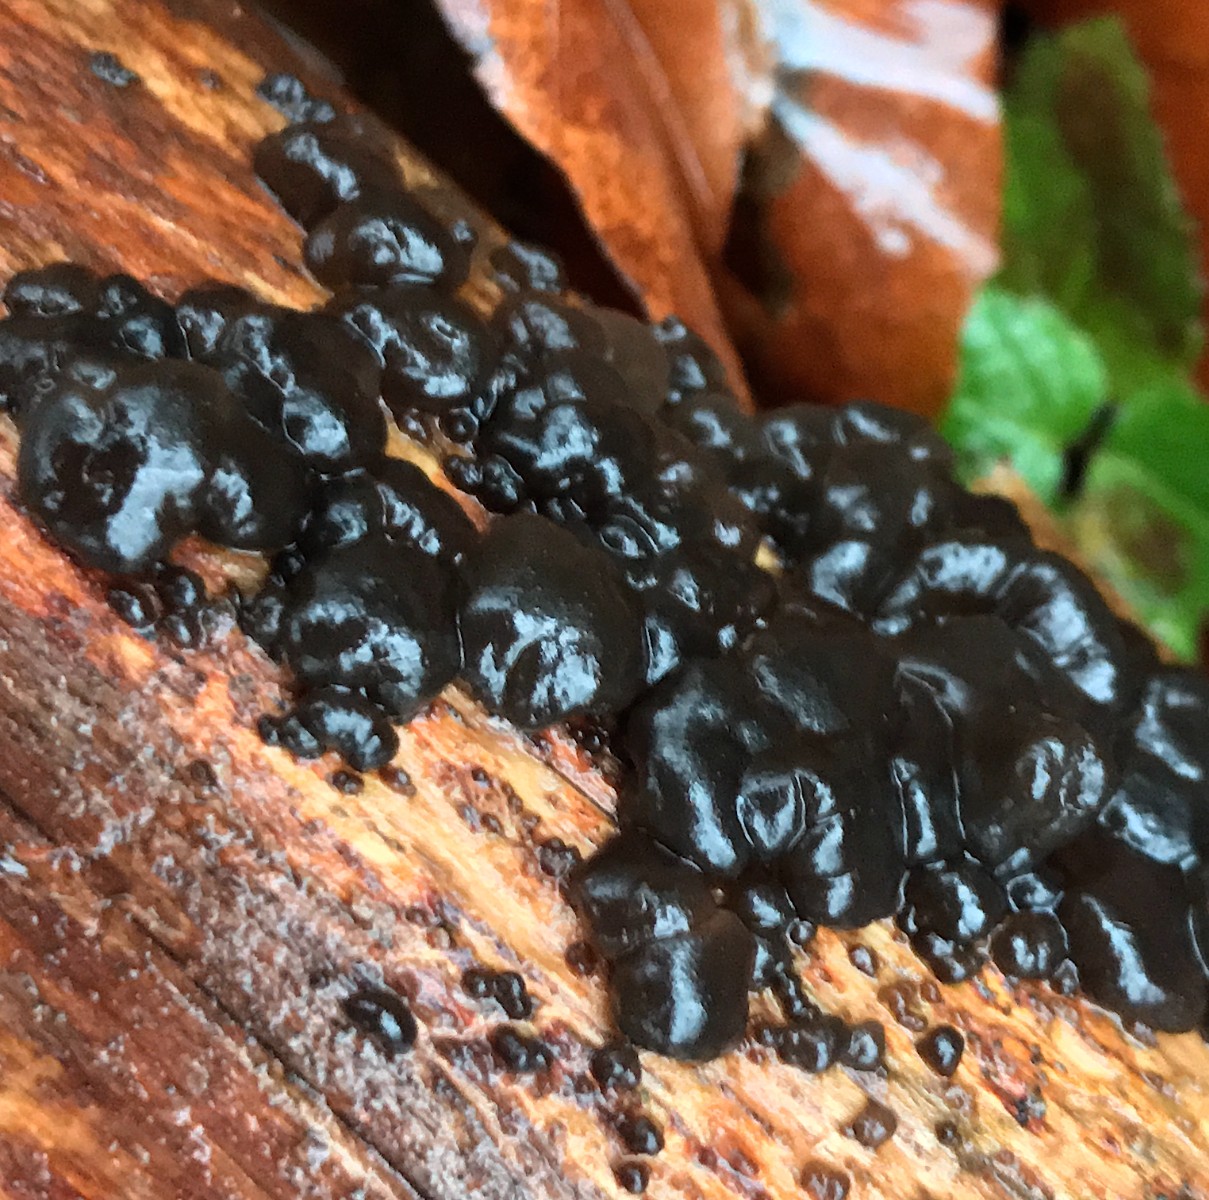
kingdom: Fungi
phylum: Basidiomycota
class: Agaricomycetes
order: Auriculariales
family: Auriculariaceae
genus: Exidia
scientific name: Exidia nigricans
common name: almindelig bævretop
